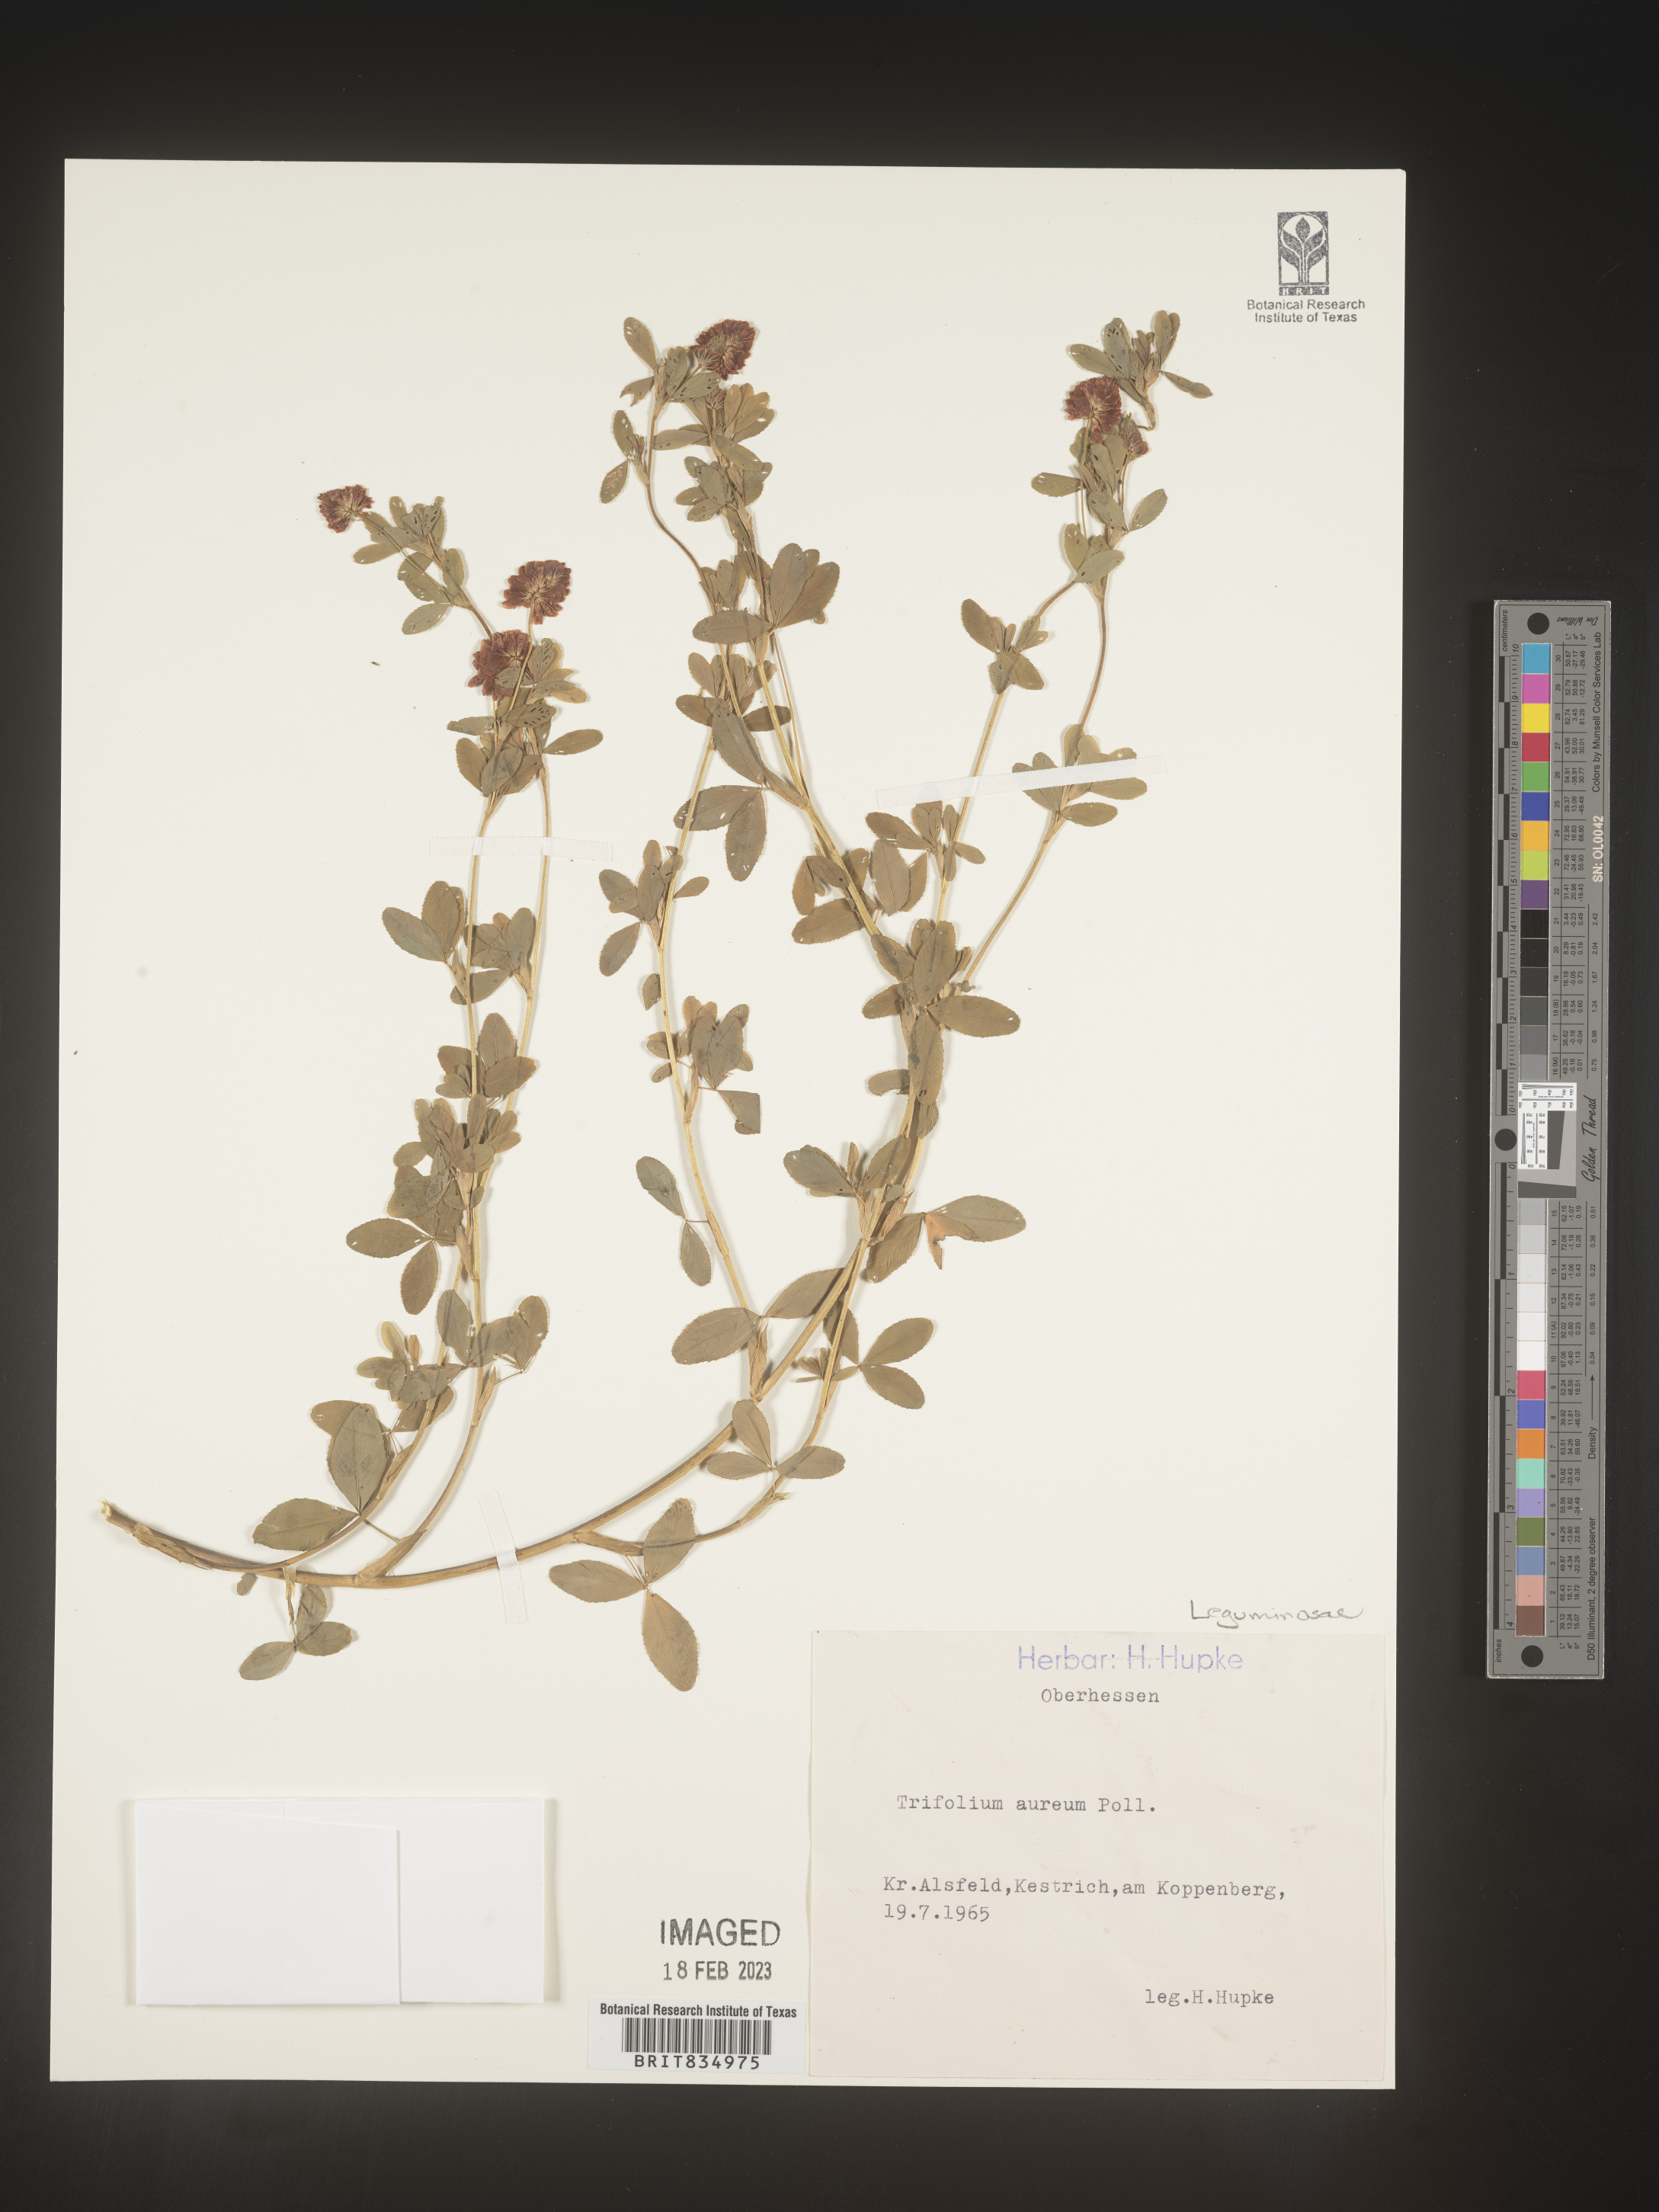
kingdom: Plantae
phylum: Tracheophyta
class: Magnoliopsida
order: Fabales
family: Fabaceae
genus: Trifolium
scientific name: Trifolium
